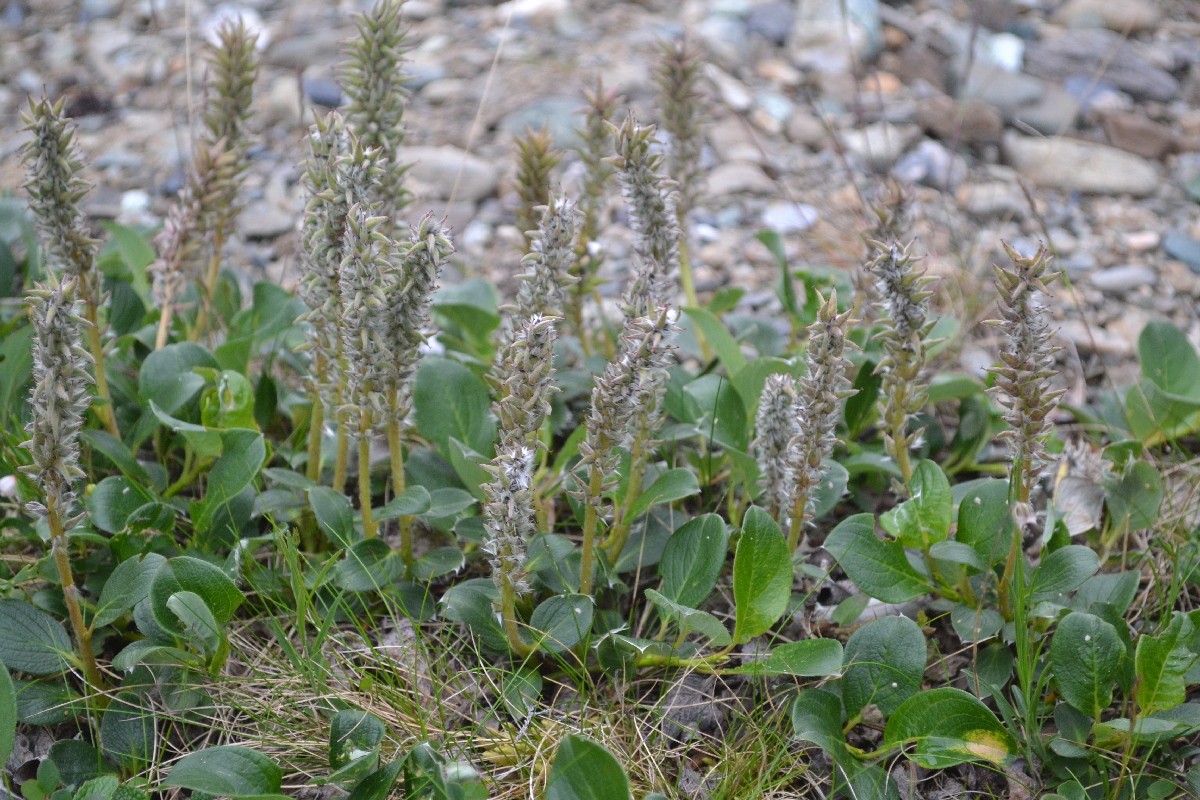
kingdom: Plantae
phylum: Tracheophyta
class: Magnoliopsida
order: Malpighiales
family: Salicaceae
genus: Salix
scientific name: Salix polaris
